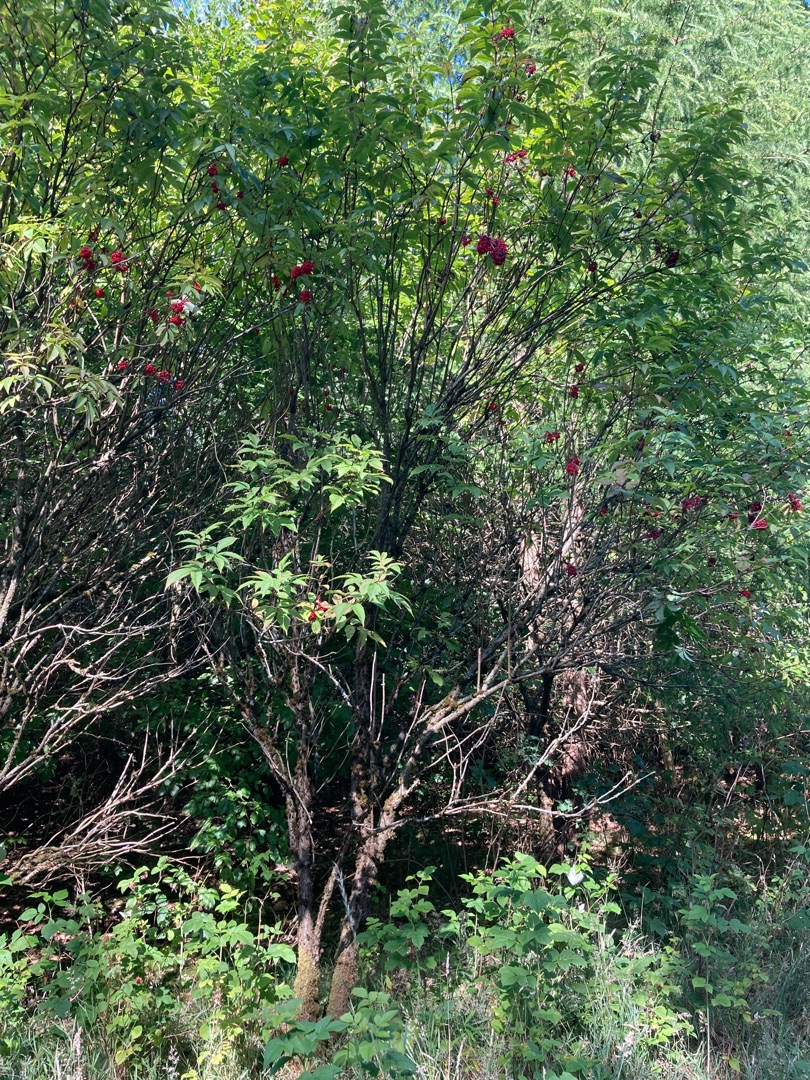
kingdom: Plantae
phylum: Tracheophyta
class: Magnoliopsida
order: Dipsacales
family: Viburnaceae
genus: Sambucus
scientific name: Sambucus racemosa
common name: Drue-hyld
